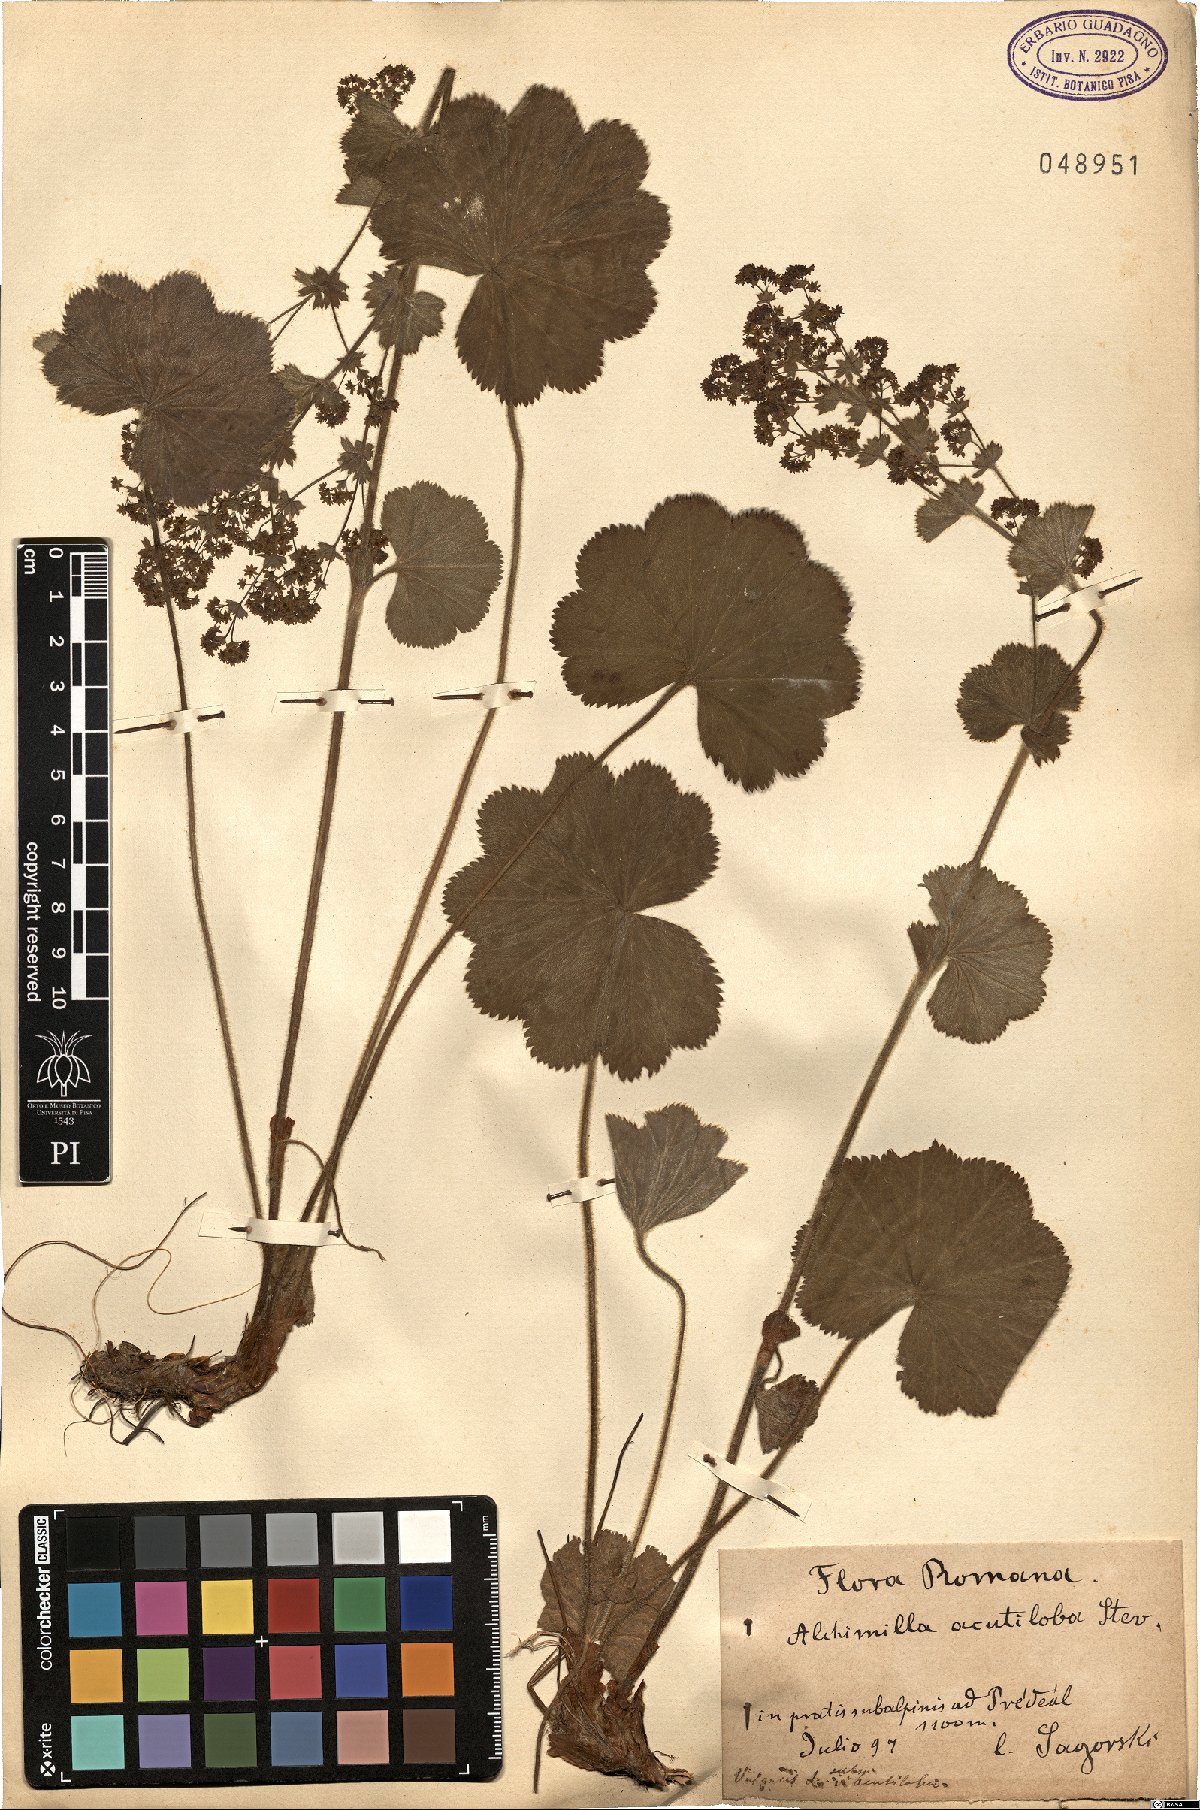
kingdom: Plantae
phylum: Tracheophyta
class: Magnoliopsida
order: Rosales
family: Rosaceae
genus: Alchemilla
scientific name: Alchemilla vulgaris
